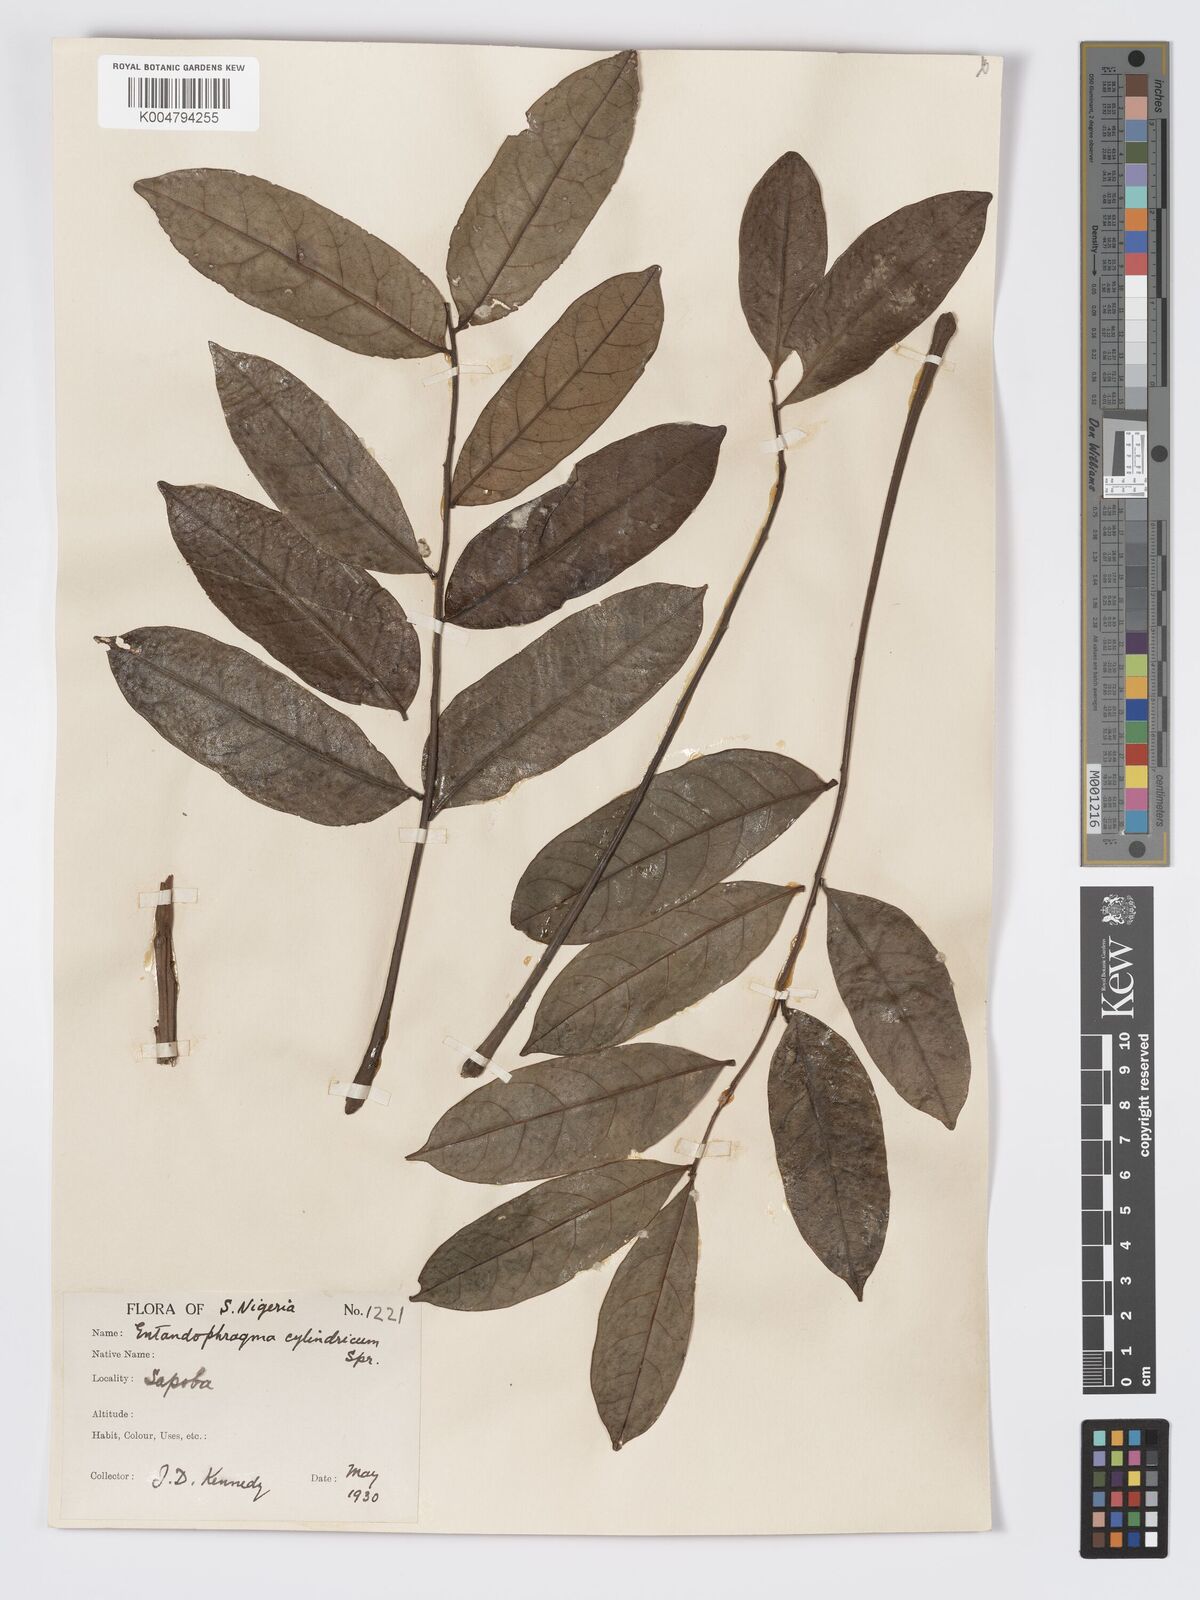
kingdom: Plantae
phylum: Tracheophyta
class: Magnoliopsida
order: Sapindales
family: Meliaceae
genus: Entandrophragma
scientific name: Entandrophragma cylindricum
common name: Sapele
